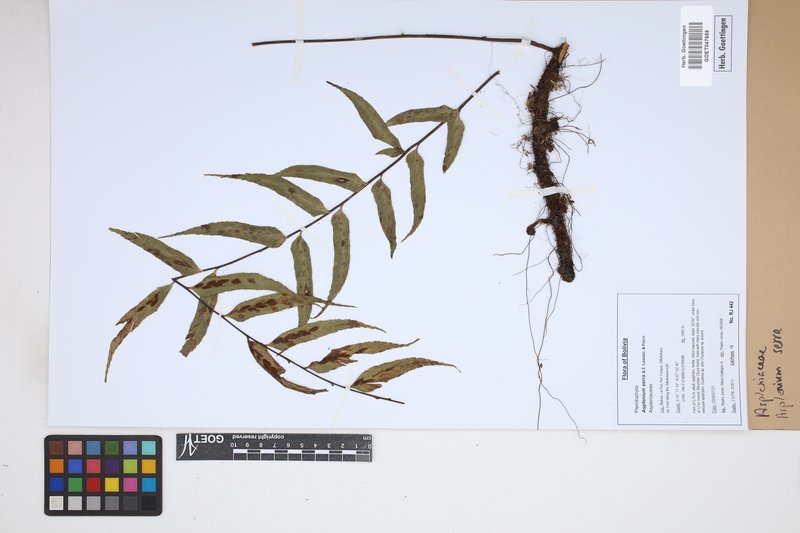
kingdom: Plantae
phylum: Tracheophyta
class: Polypodiopsida
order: Polypodiales
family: Aspleniaceae
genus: Asplenium
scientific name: Asplenium serra
